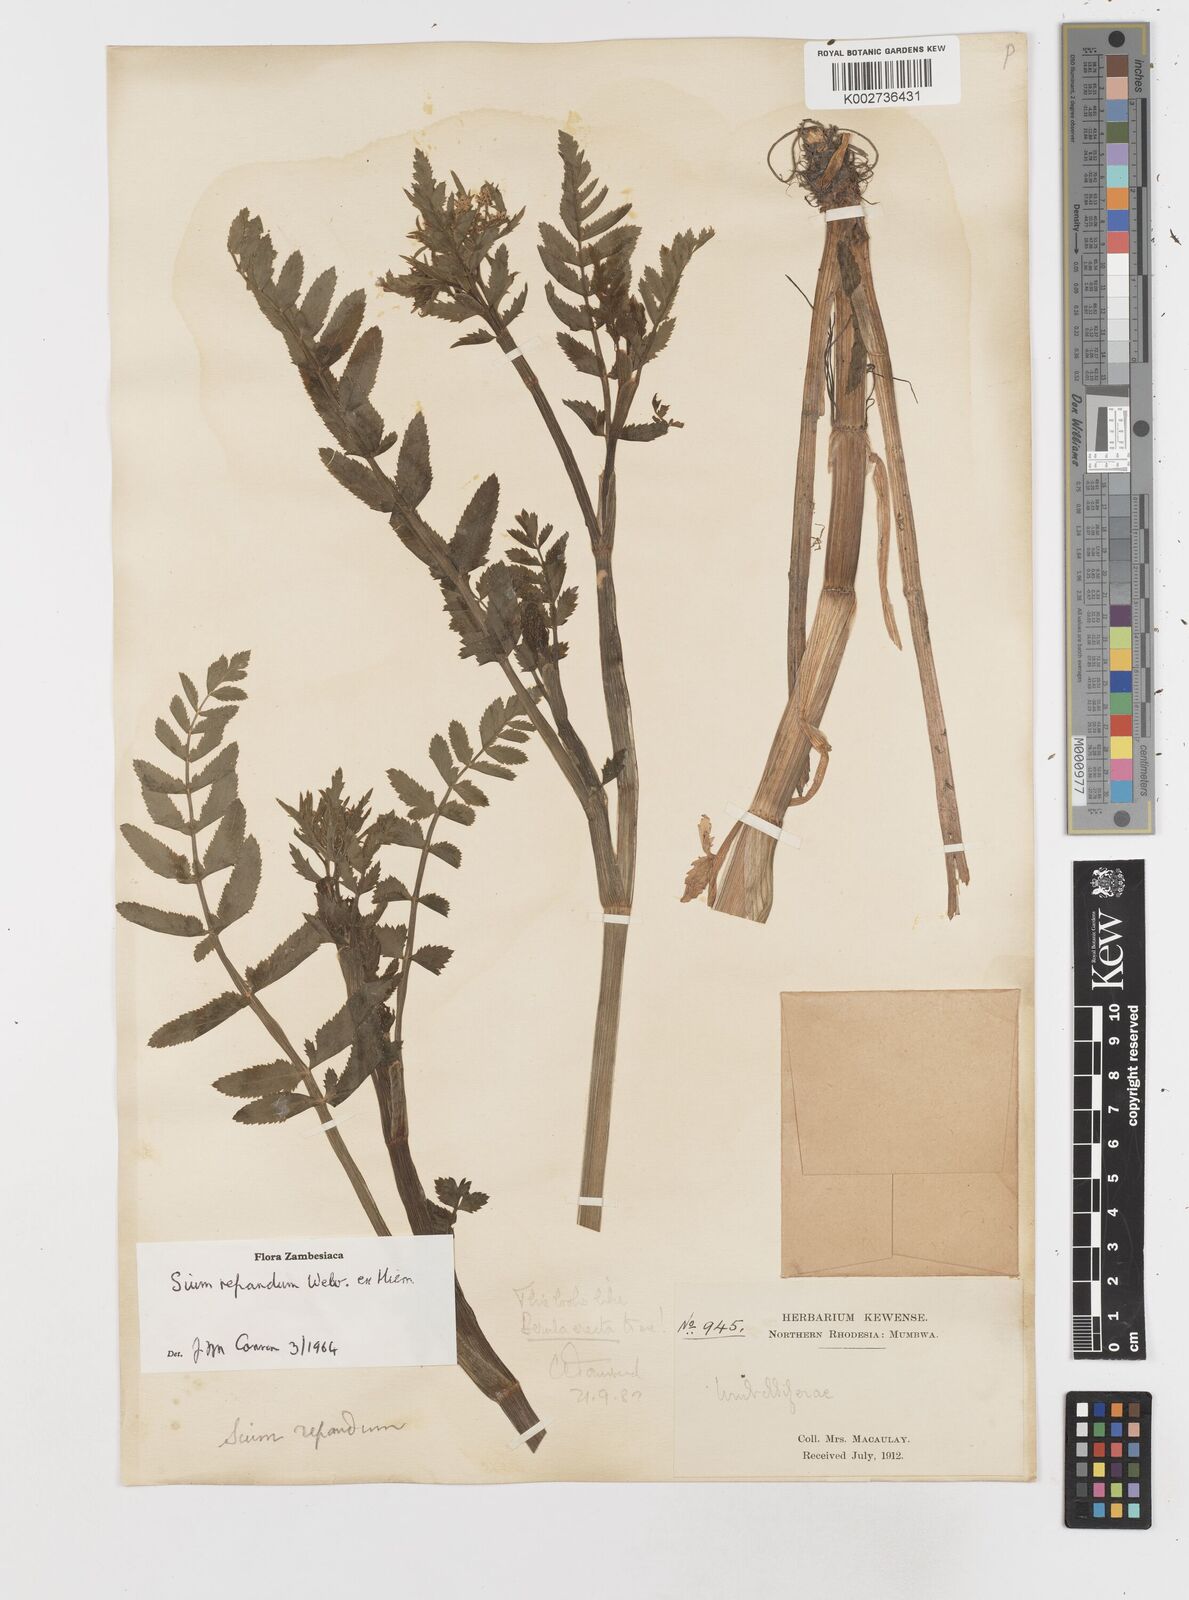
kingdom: Plantae
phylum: Tracheophyta
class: Magnoliopsida
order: Apiales
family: Apiaceae
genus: Berula
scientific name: Berula repanda
